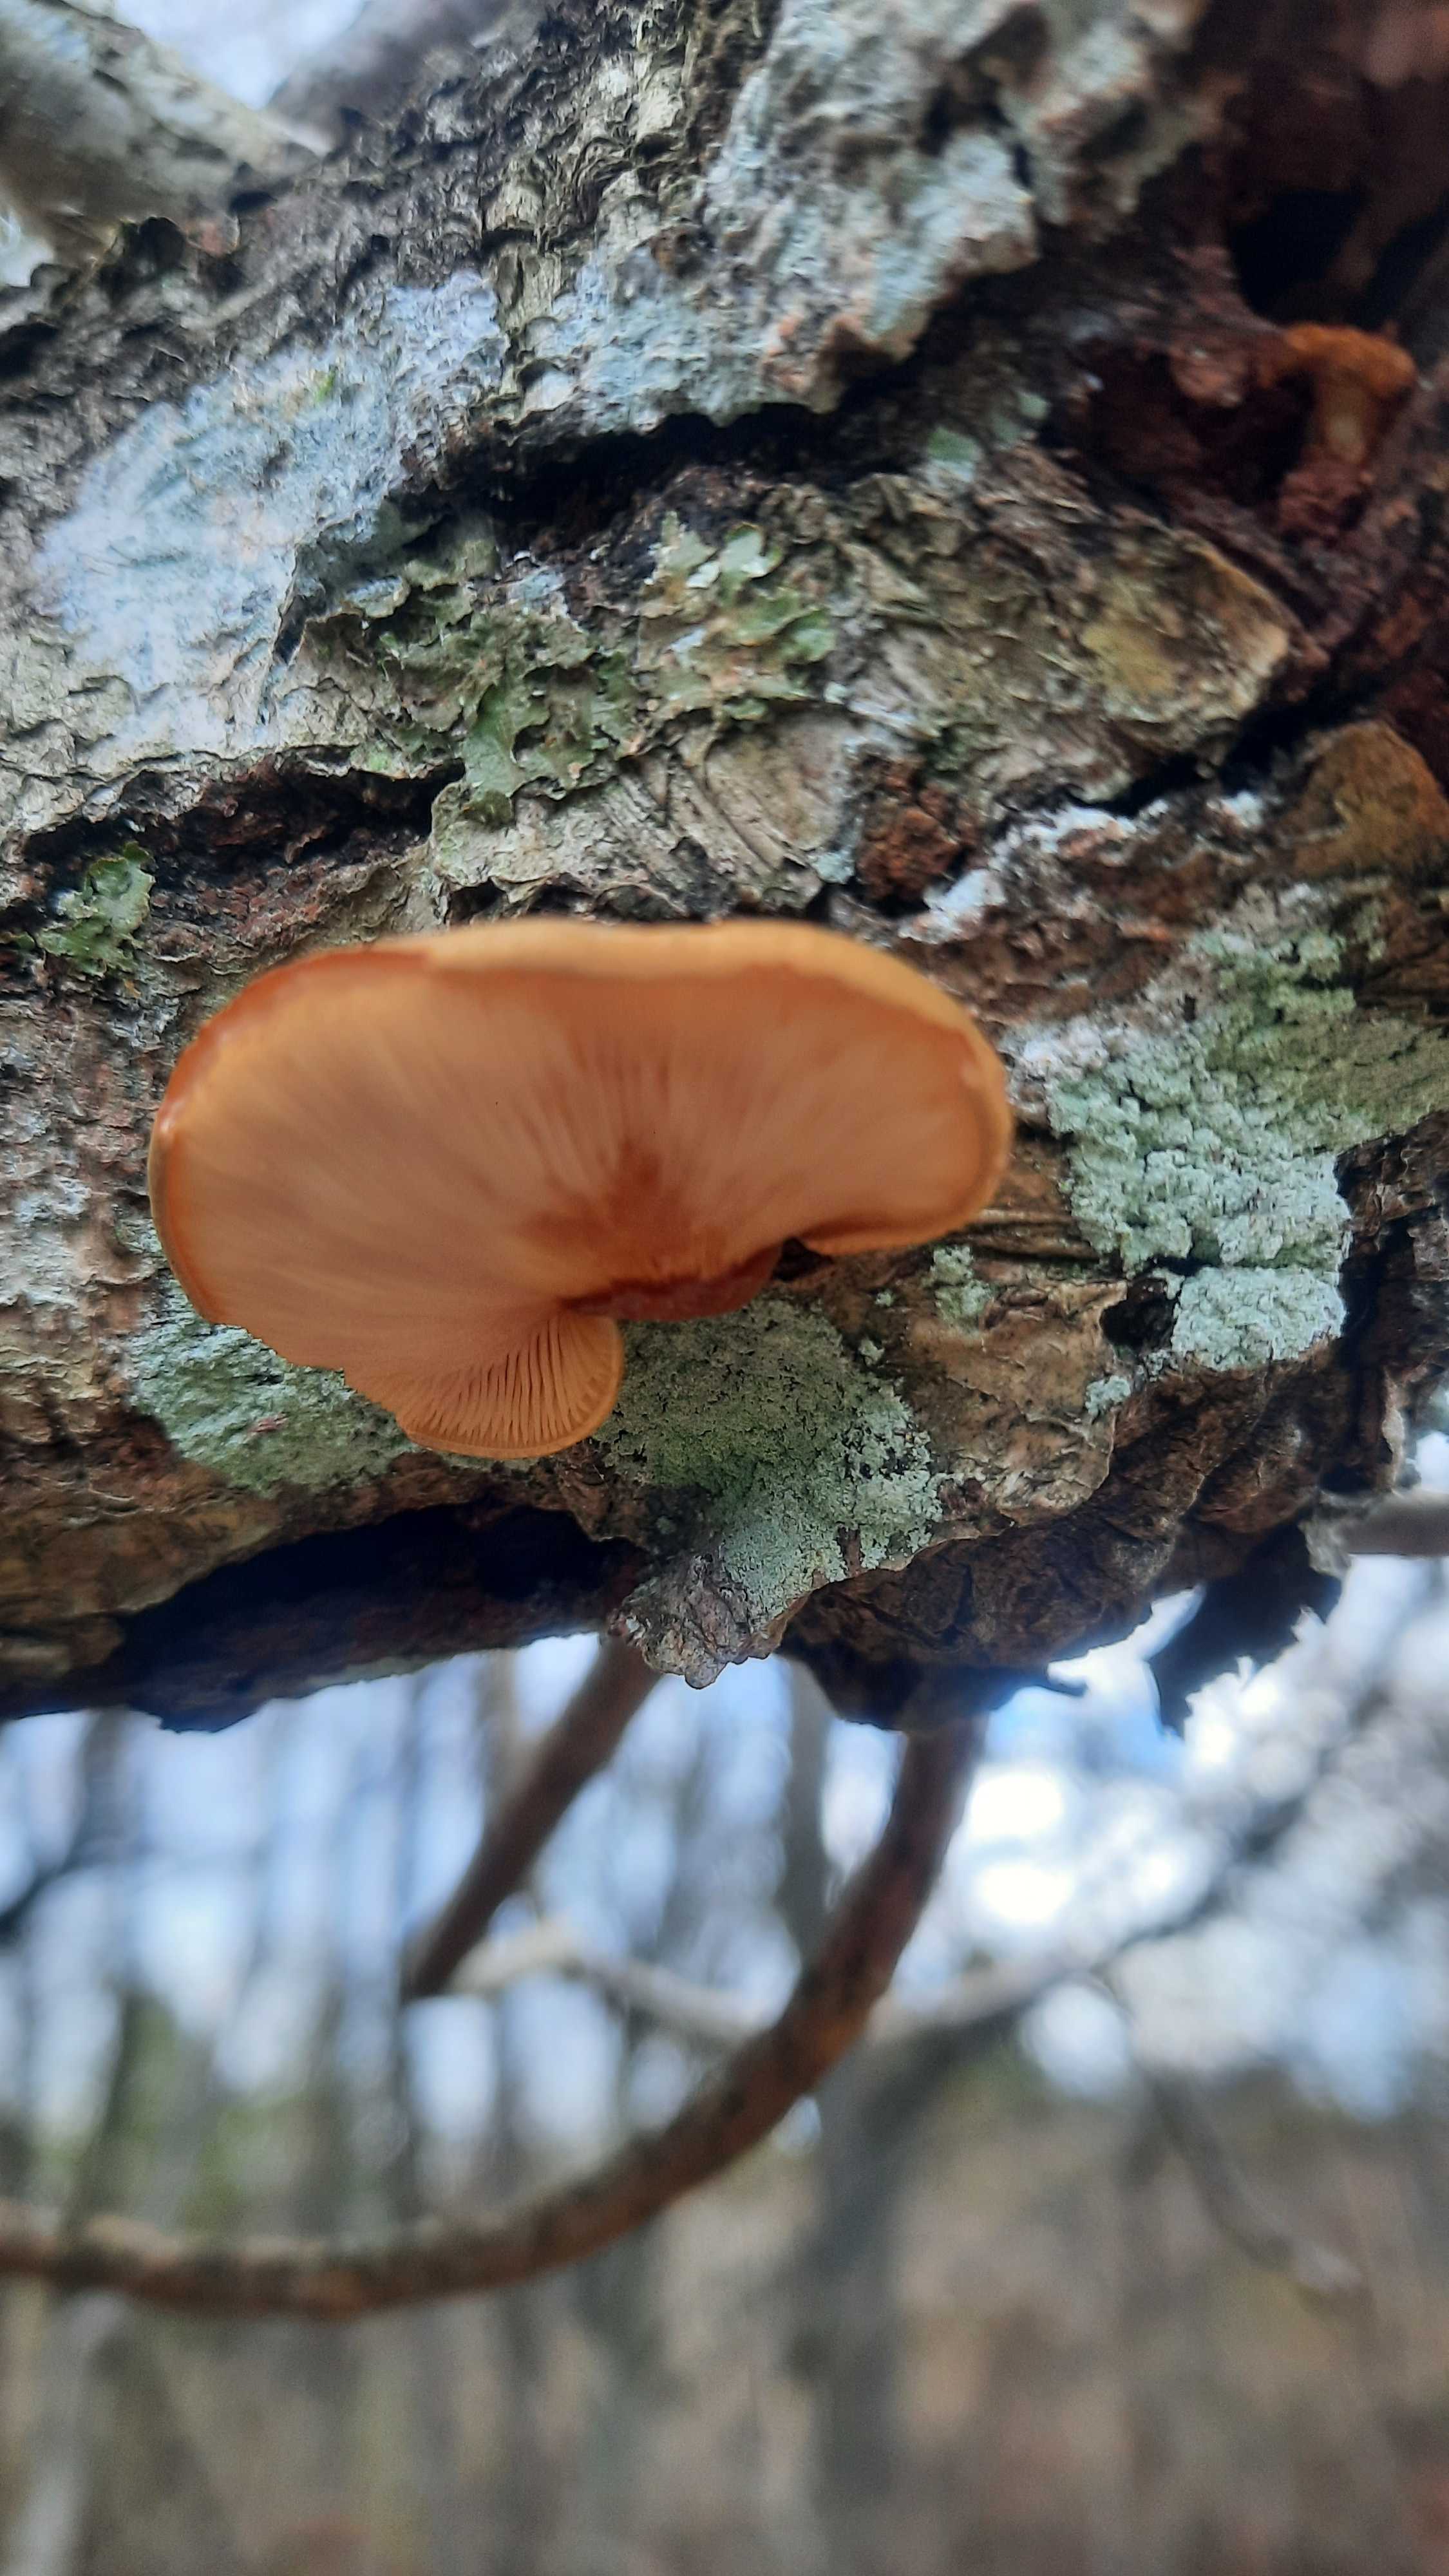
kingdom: Fungi
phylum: Basidiomycota
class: Agaricomycetes
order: Agaricales
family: Sarcomyxaceae
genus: Sarcomyxa
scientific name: Sarcomyxa serotina
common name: gummihat
